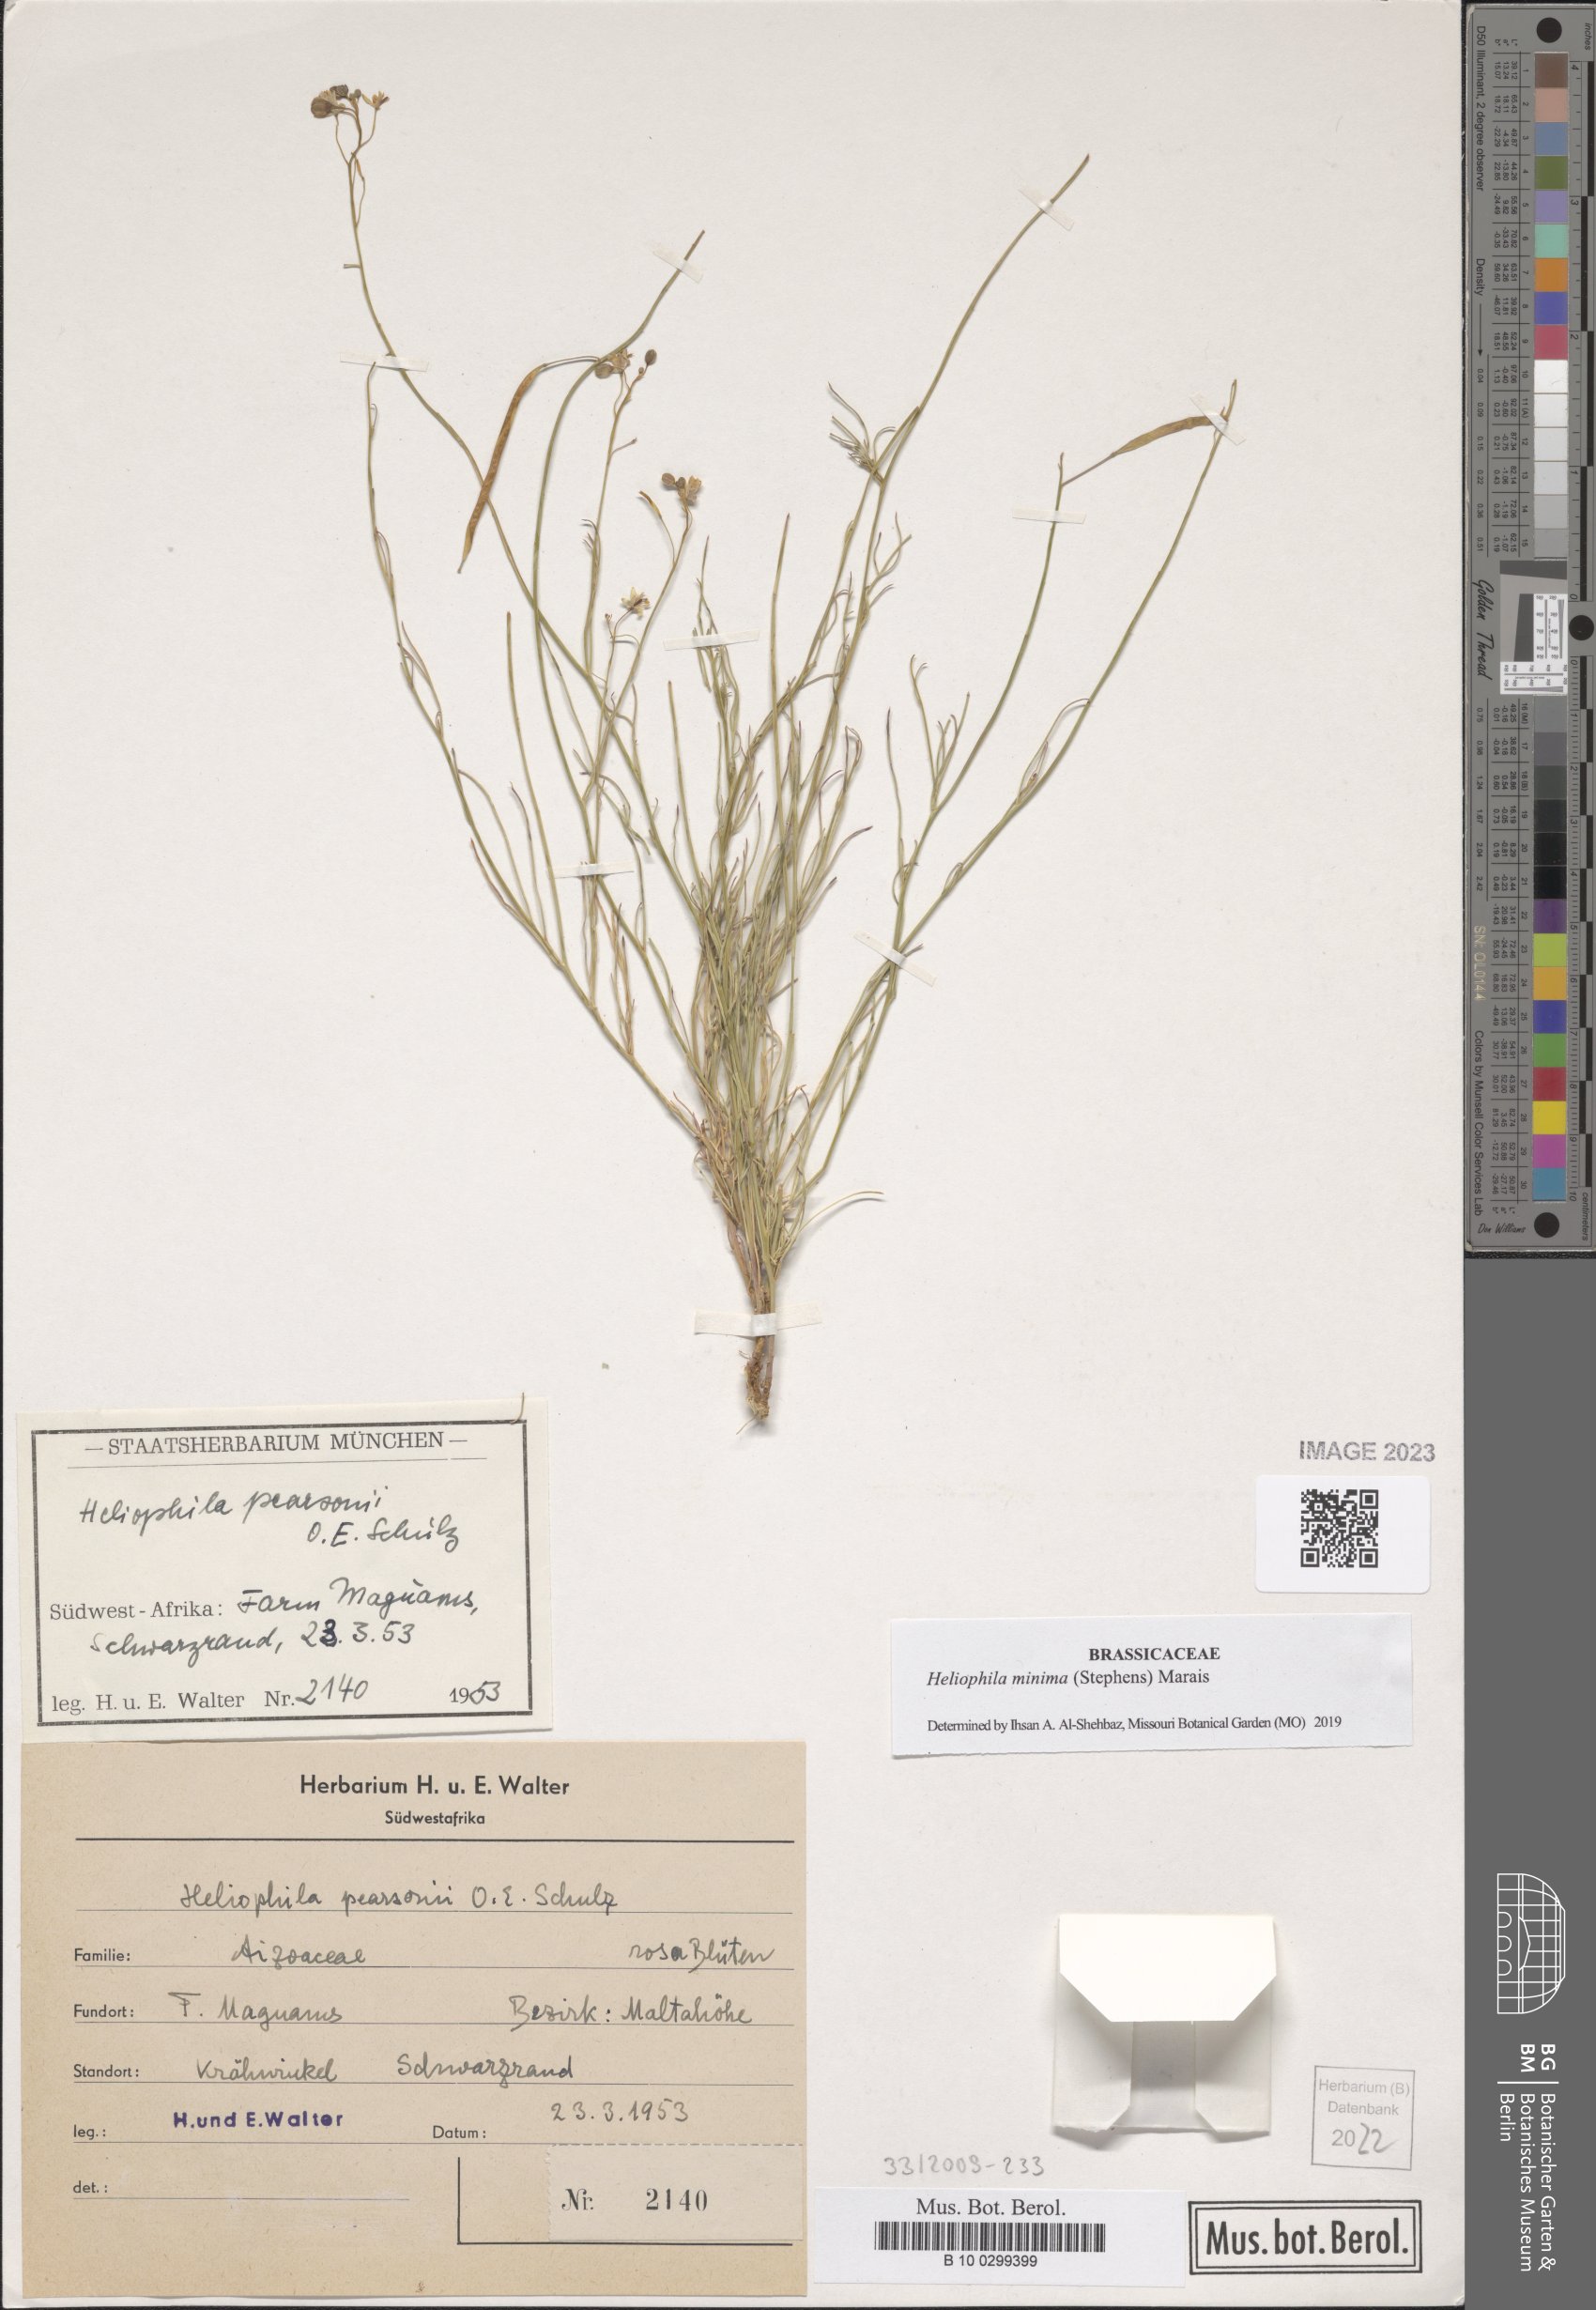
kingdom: Plantae
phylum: Tracheophyta
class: Magnoliopsida
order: Brassicales
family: Brassicaceae
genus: Heliophila
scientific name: Heliophila minima
